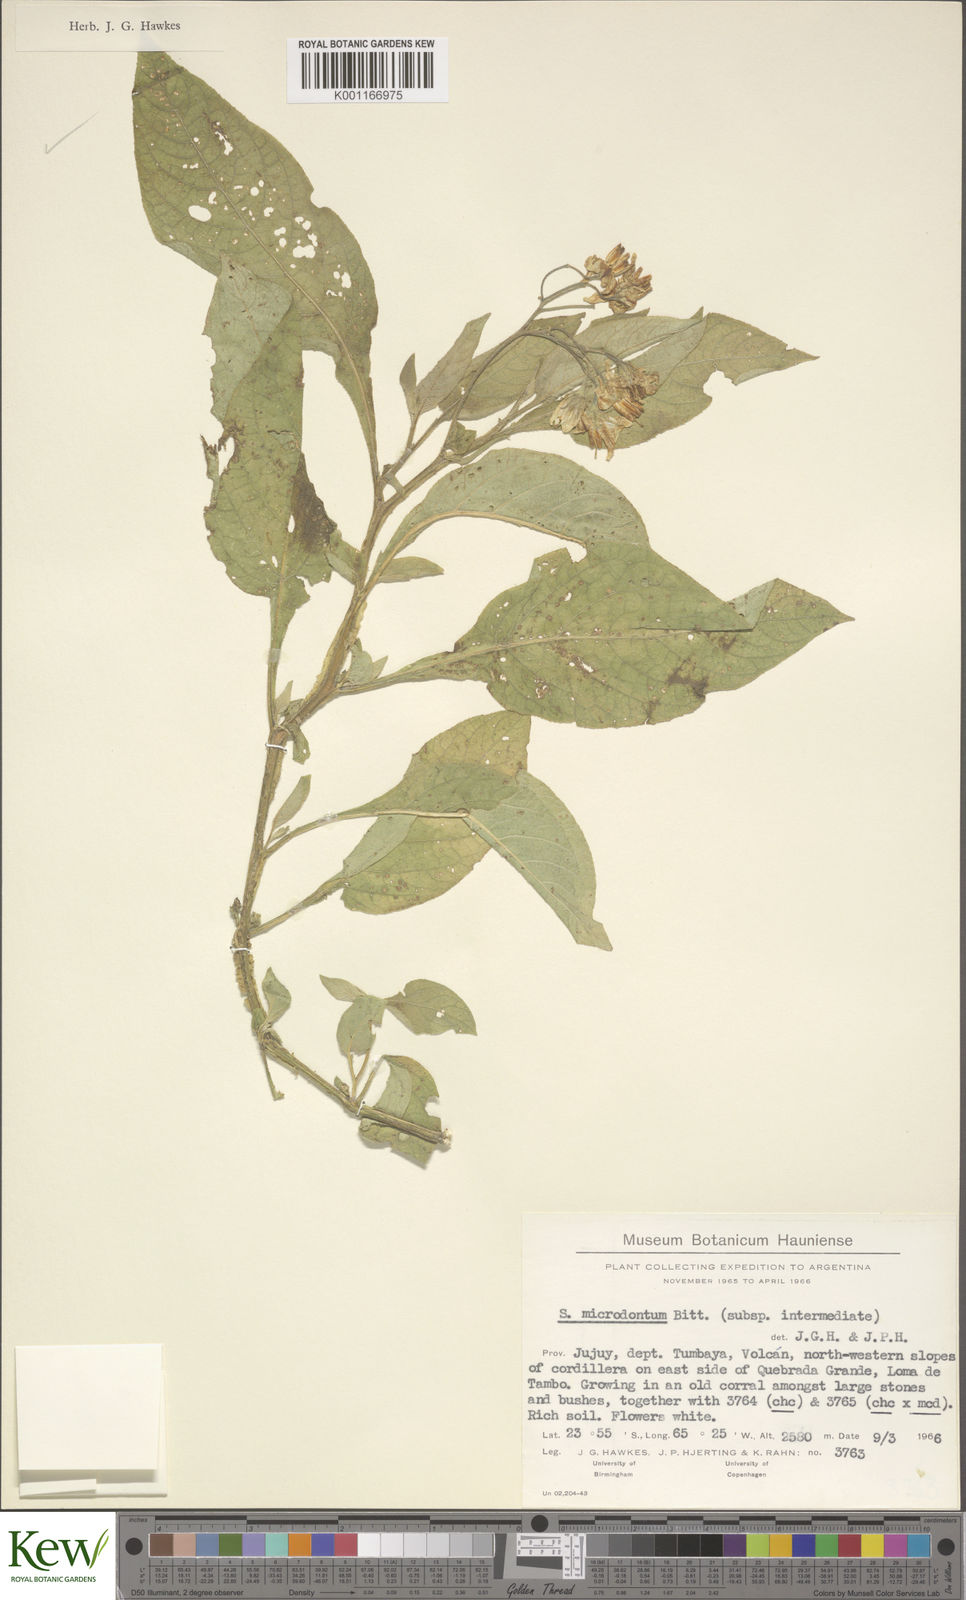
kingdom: Plantae
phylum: Tracheophyta
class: Magnoliopsida
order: Solanales
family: Solanaceae
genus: Solanum
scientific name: Solanum microdontum
